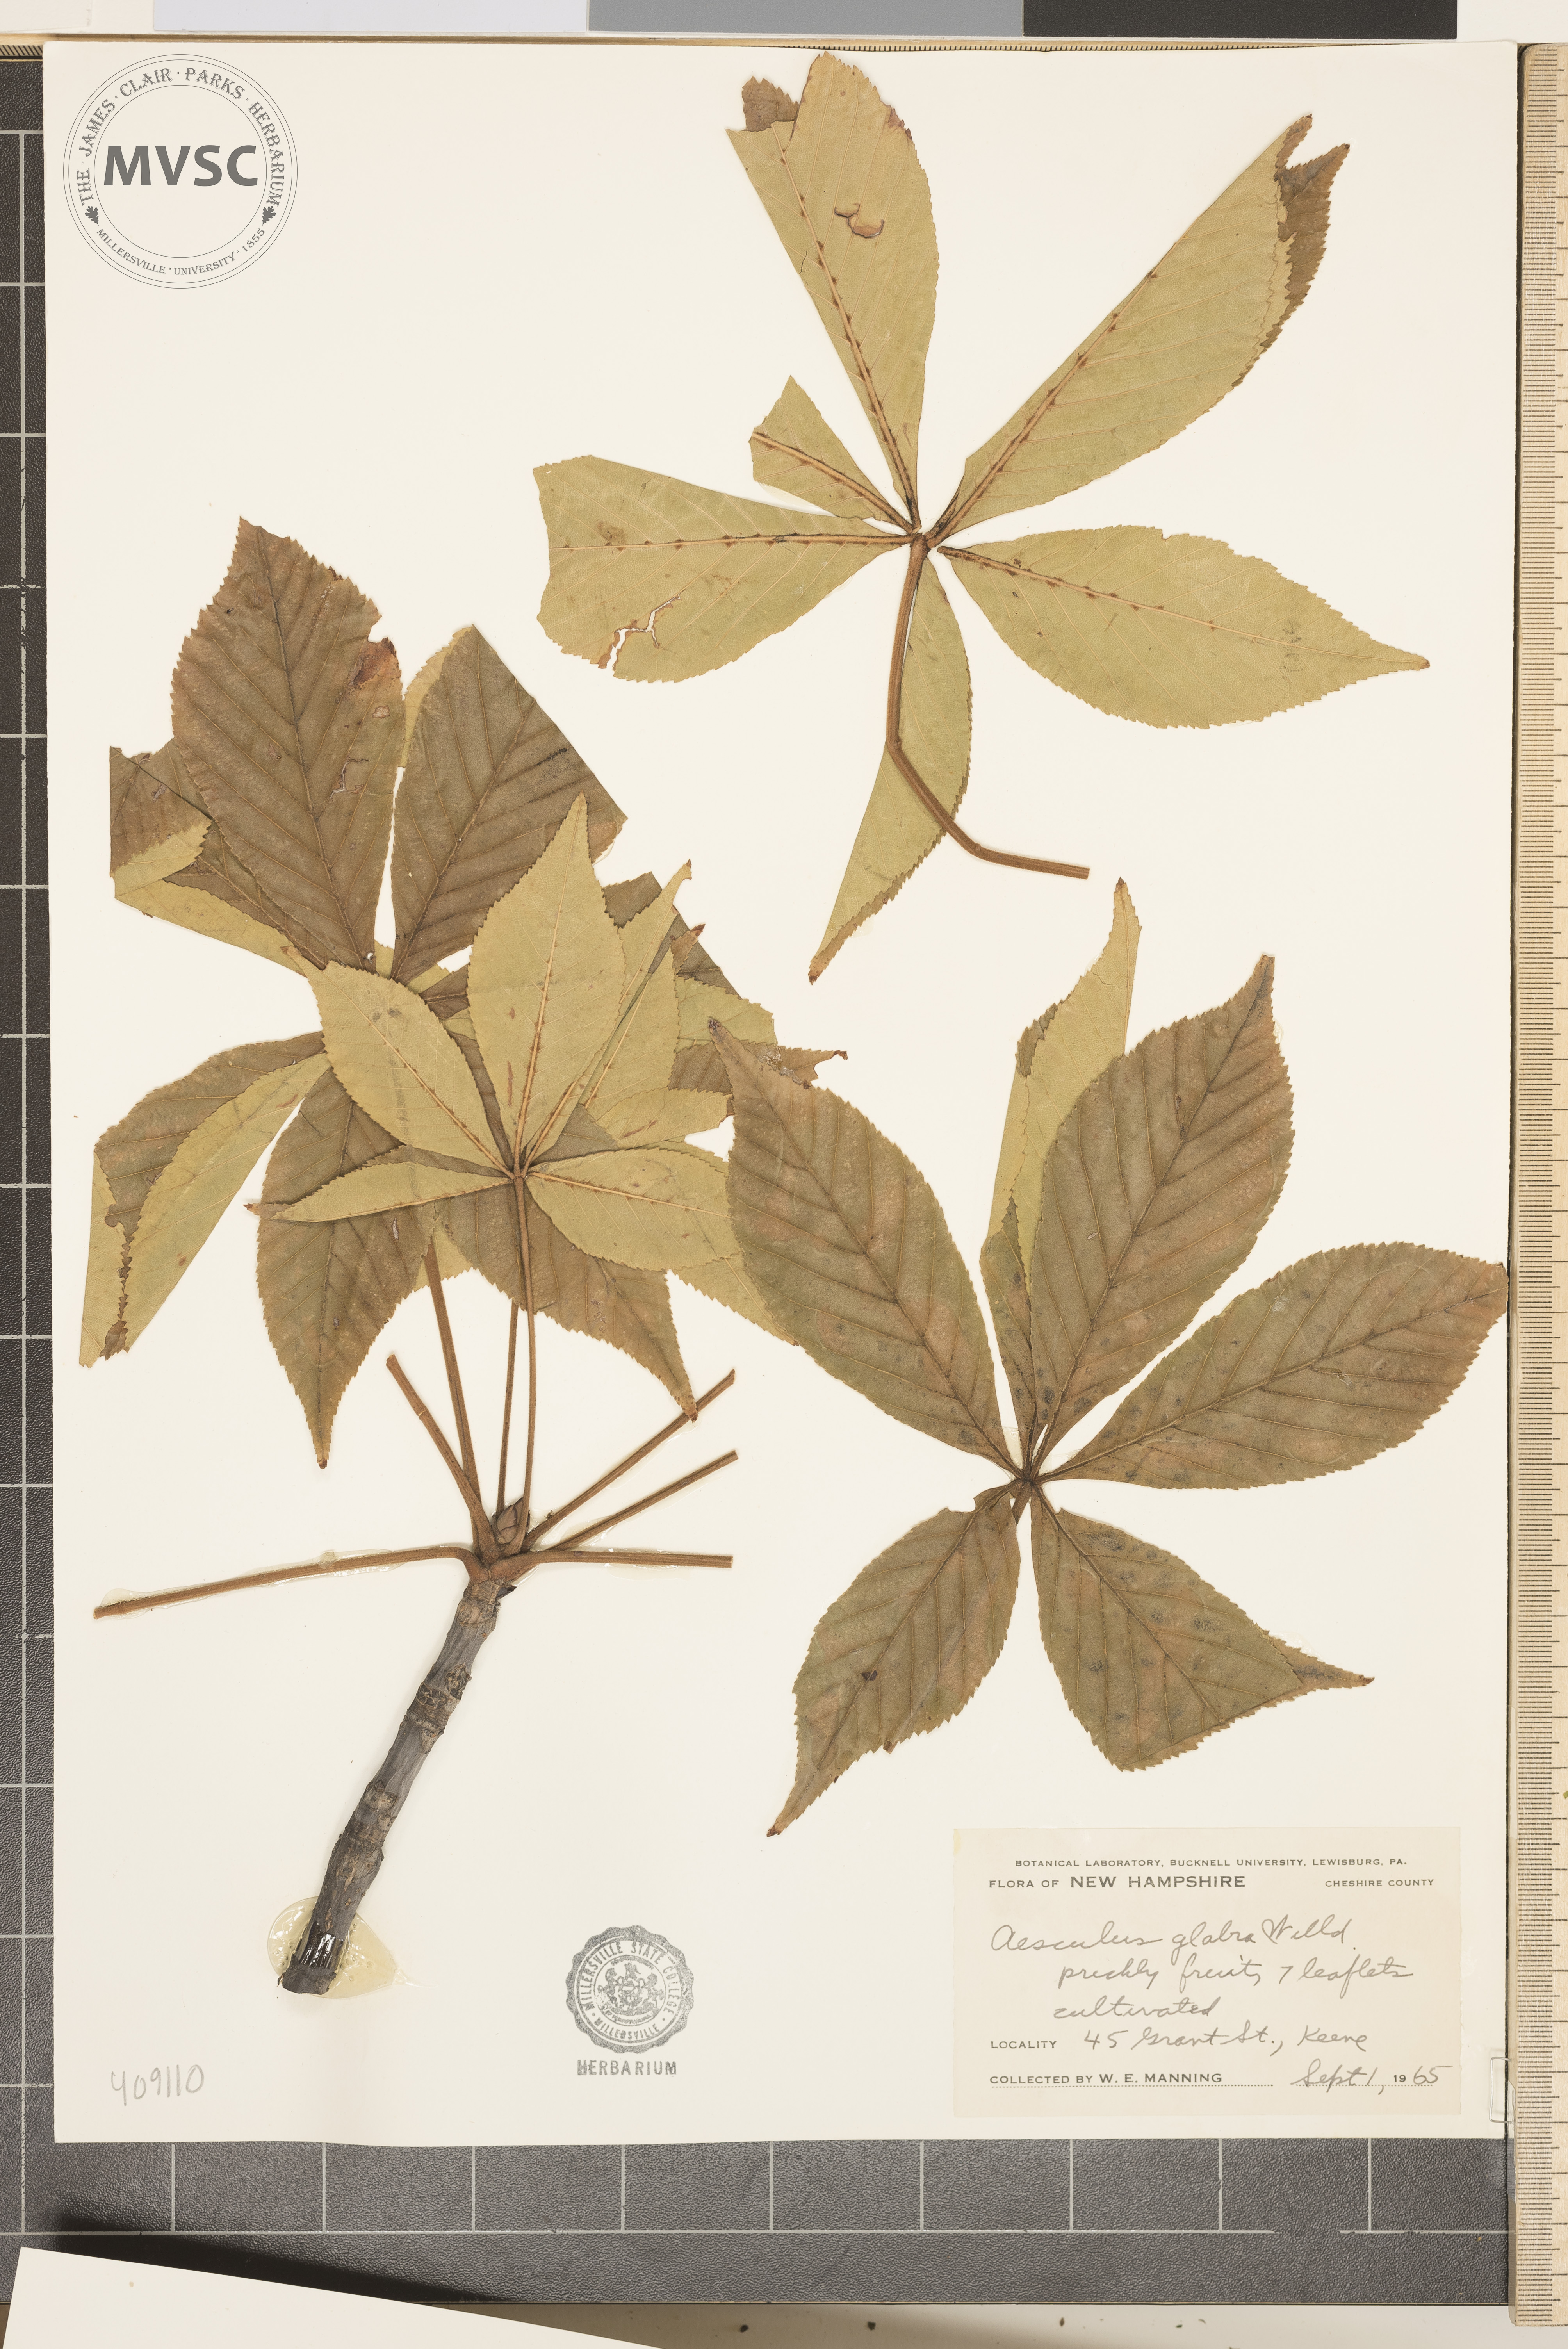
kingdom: Plantae
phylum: Tracheophyta
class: Magnoliopsida
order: Sapindales
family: Sapindaceae
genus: Aesculus
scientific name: Aesculus glabra
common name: Ohio buckeye
